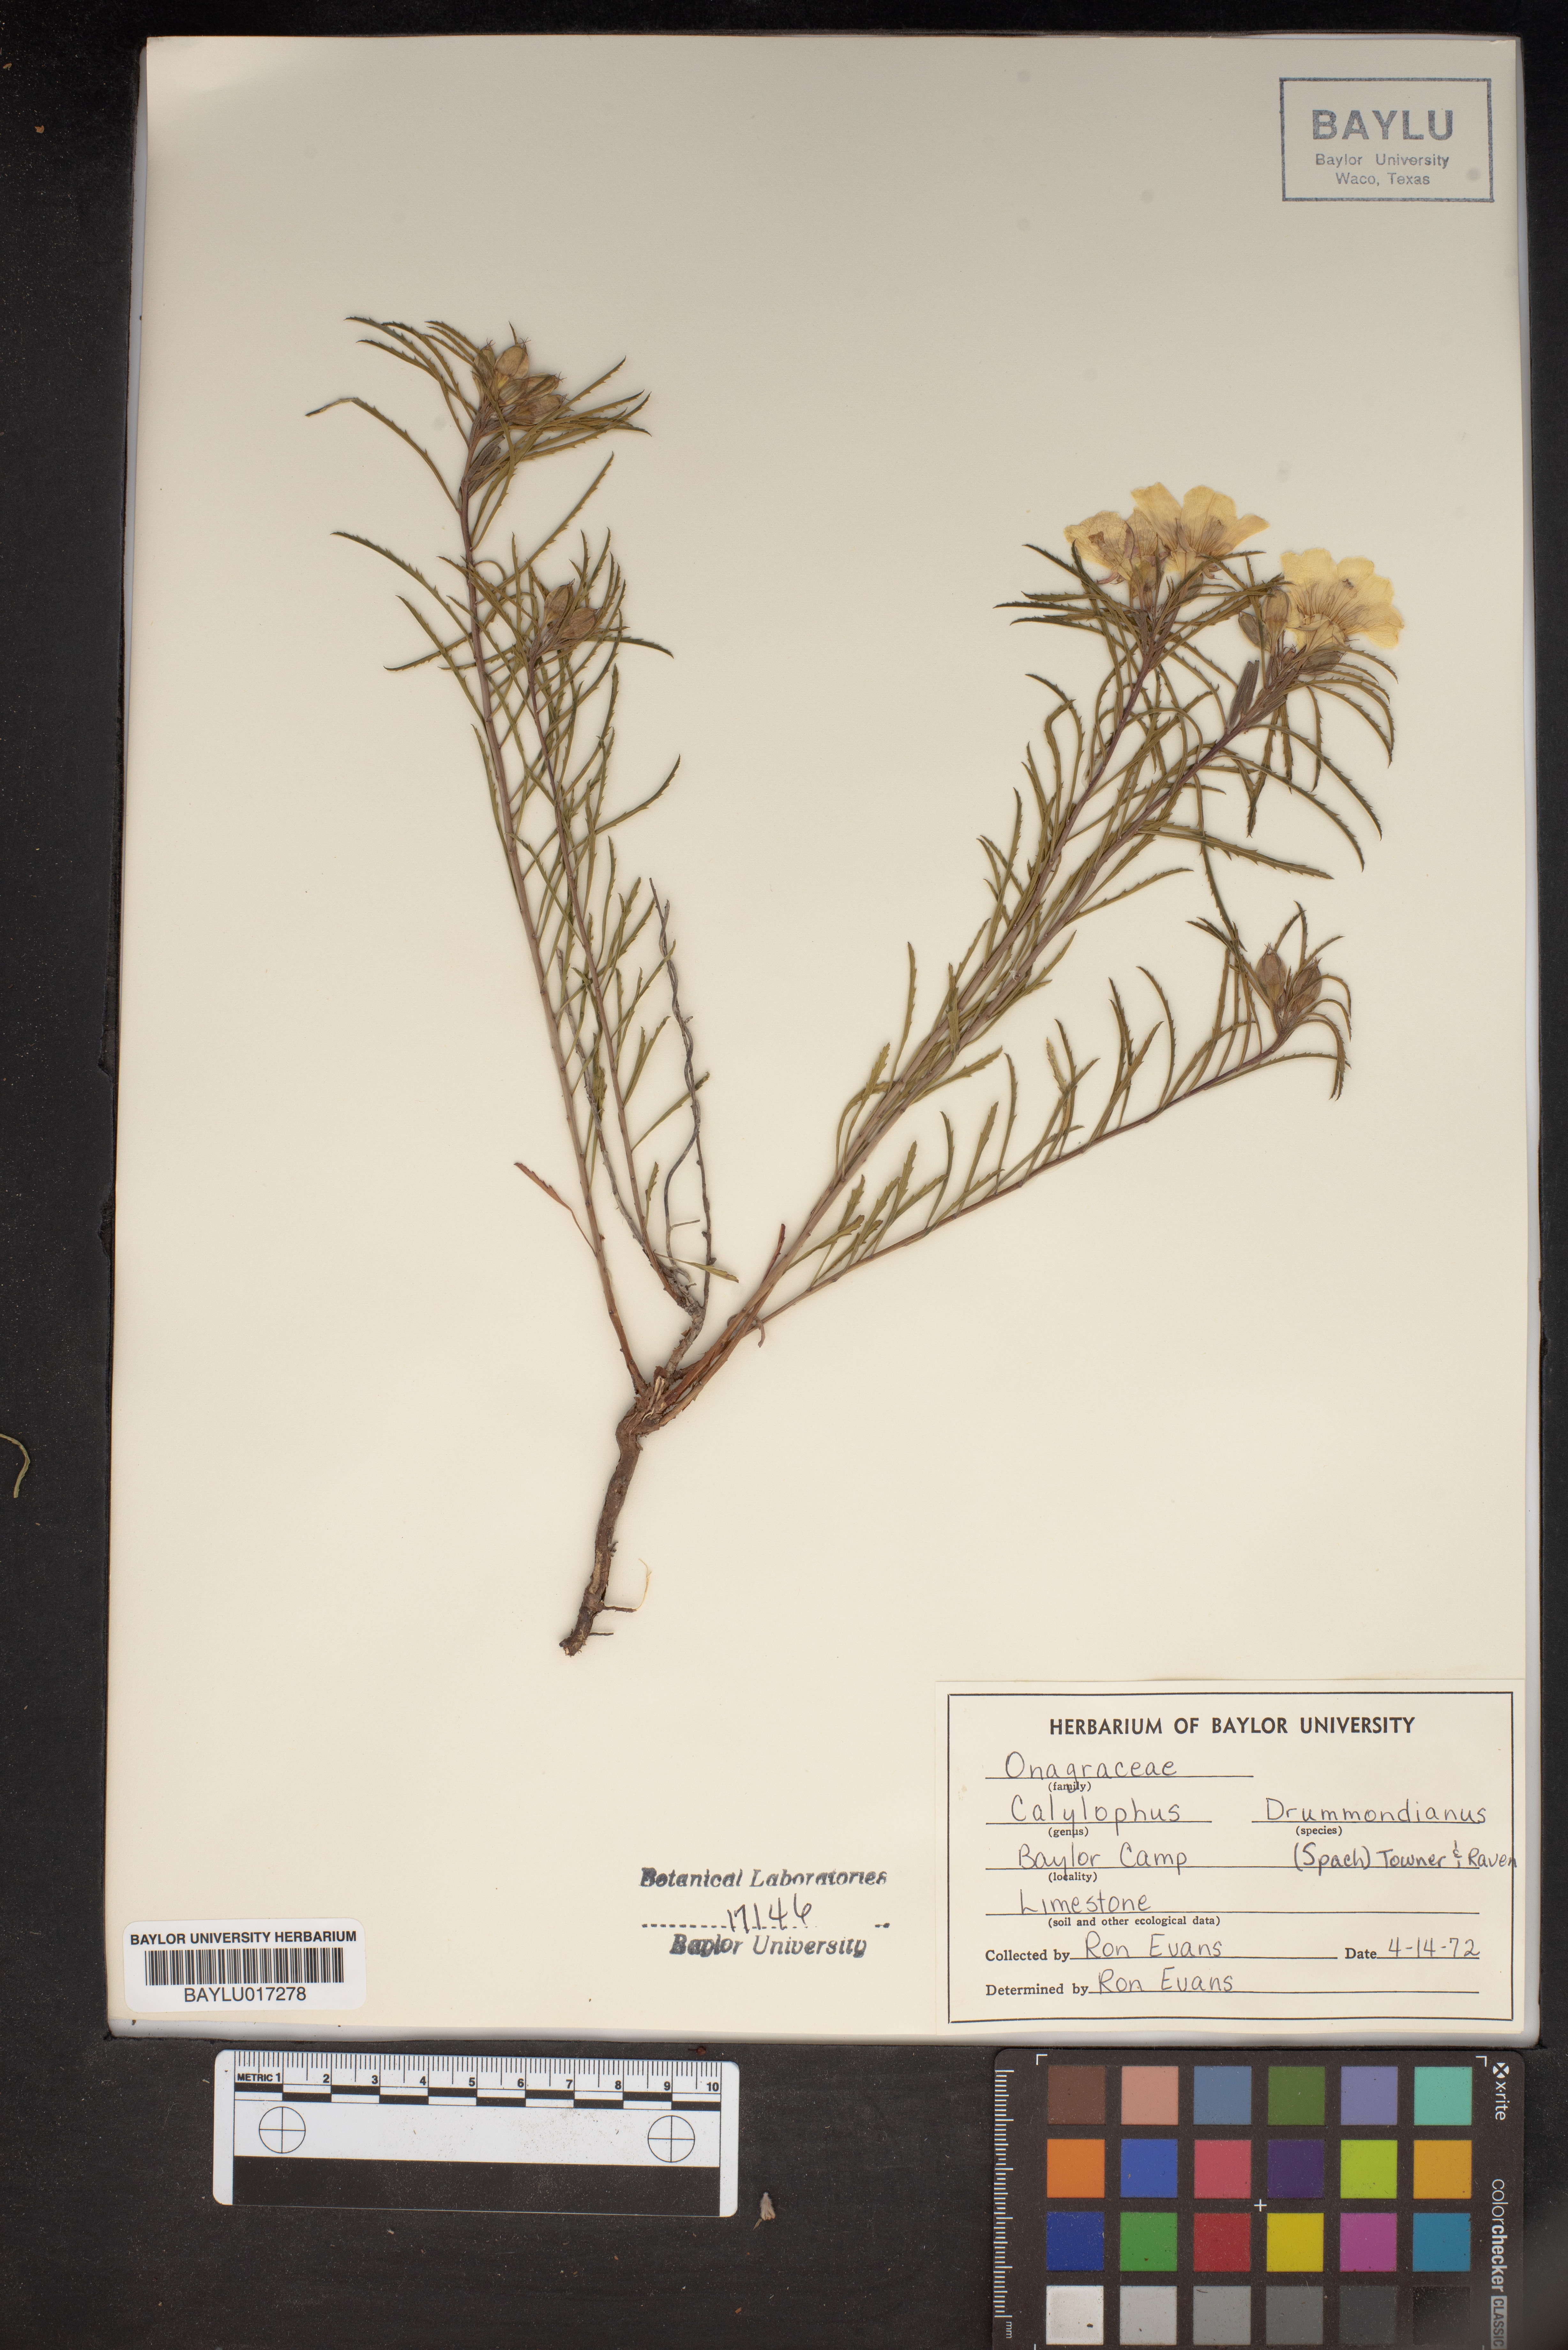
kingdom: Plantae
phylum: Tracheophyta
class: Magnoliopsida
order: Myrtales
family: Onagraceae
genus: Oenothera
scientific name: Oenothera serrulata
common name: Half-shrub calylophus
